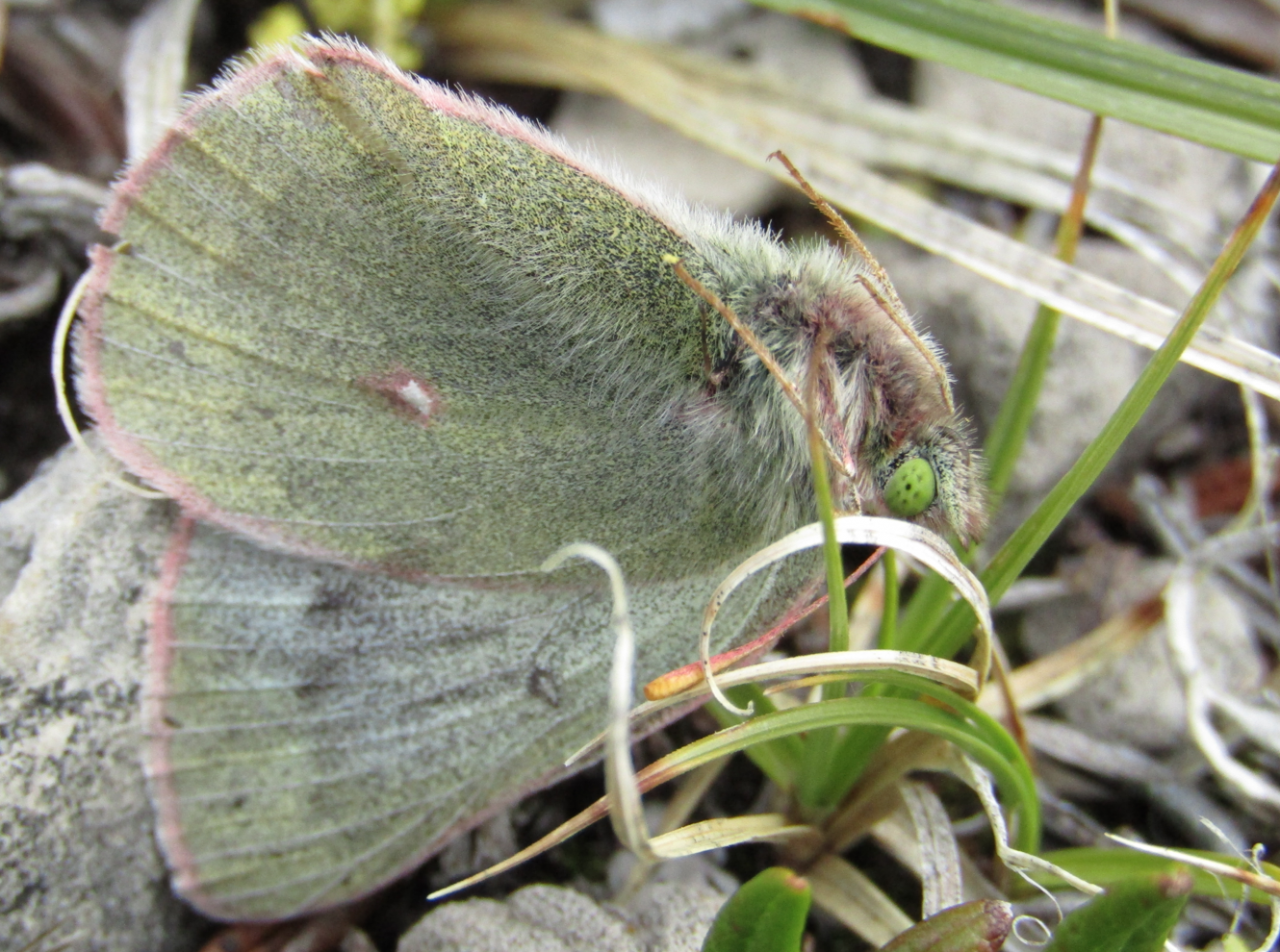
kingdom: Animalia
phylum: Arthropoda
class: Insecta
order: Lepidoptera
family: Pieridae
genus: Colias
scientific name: Colias nastes
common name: Labrador Sulphur
